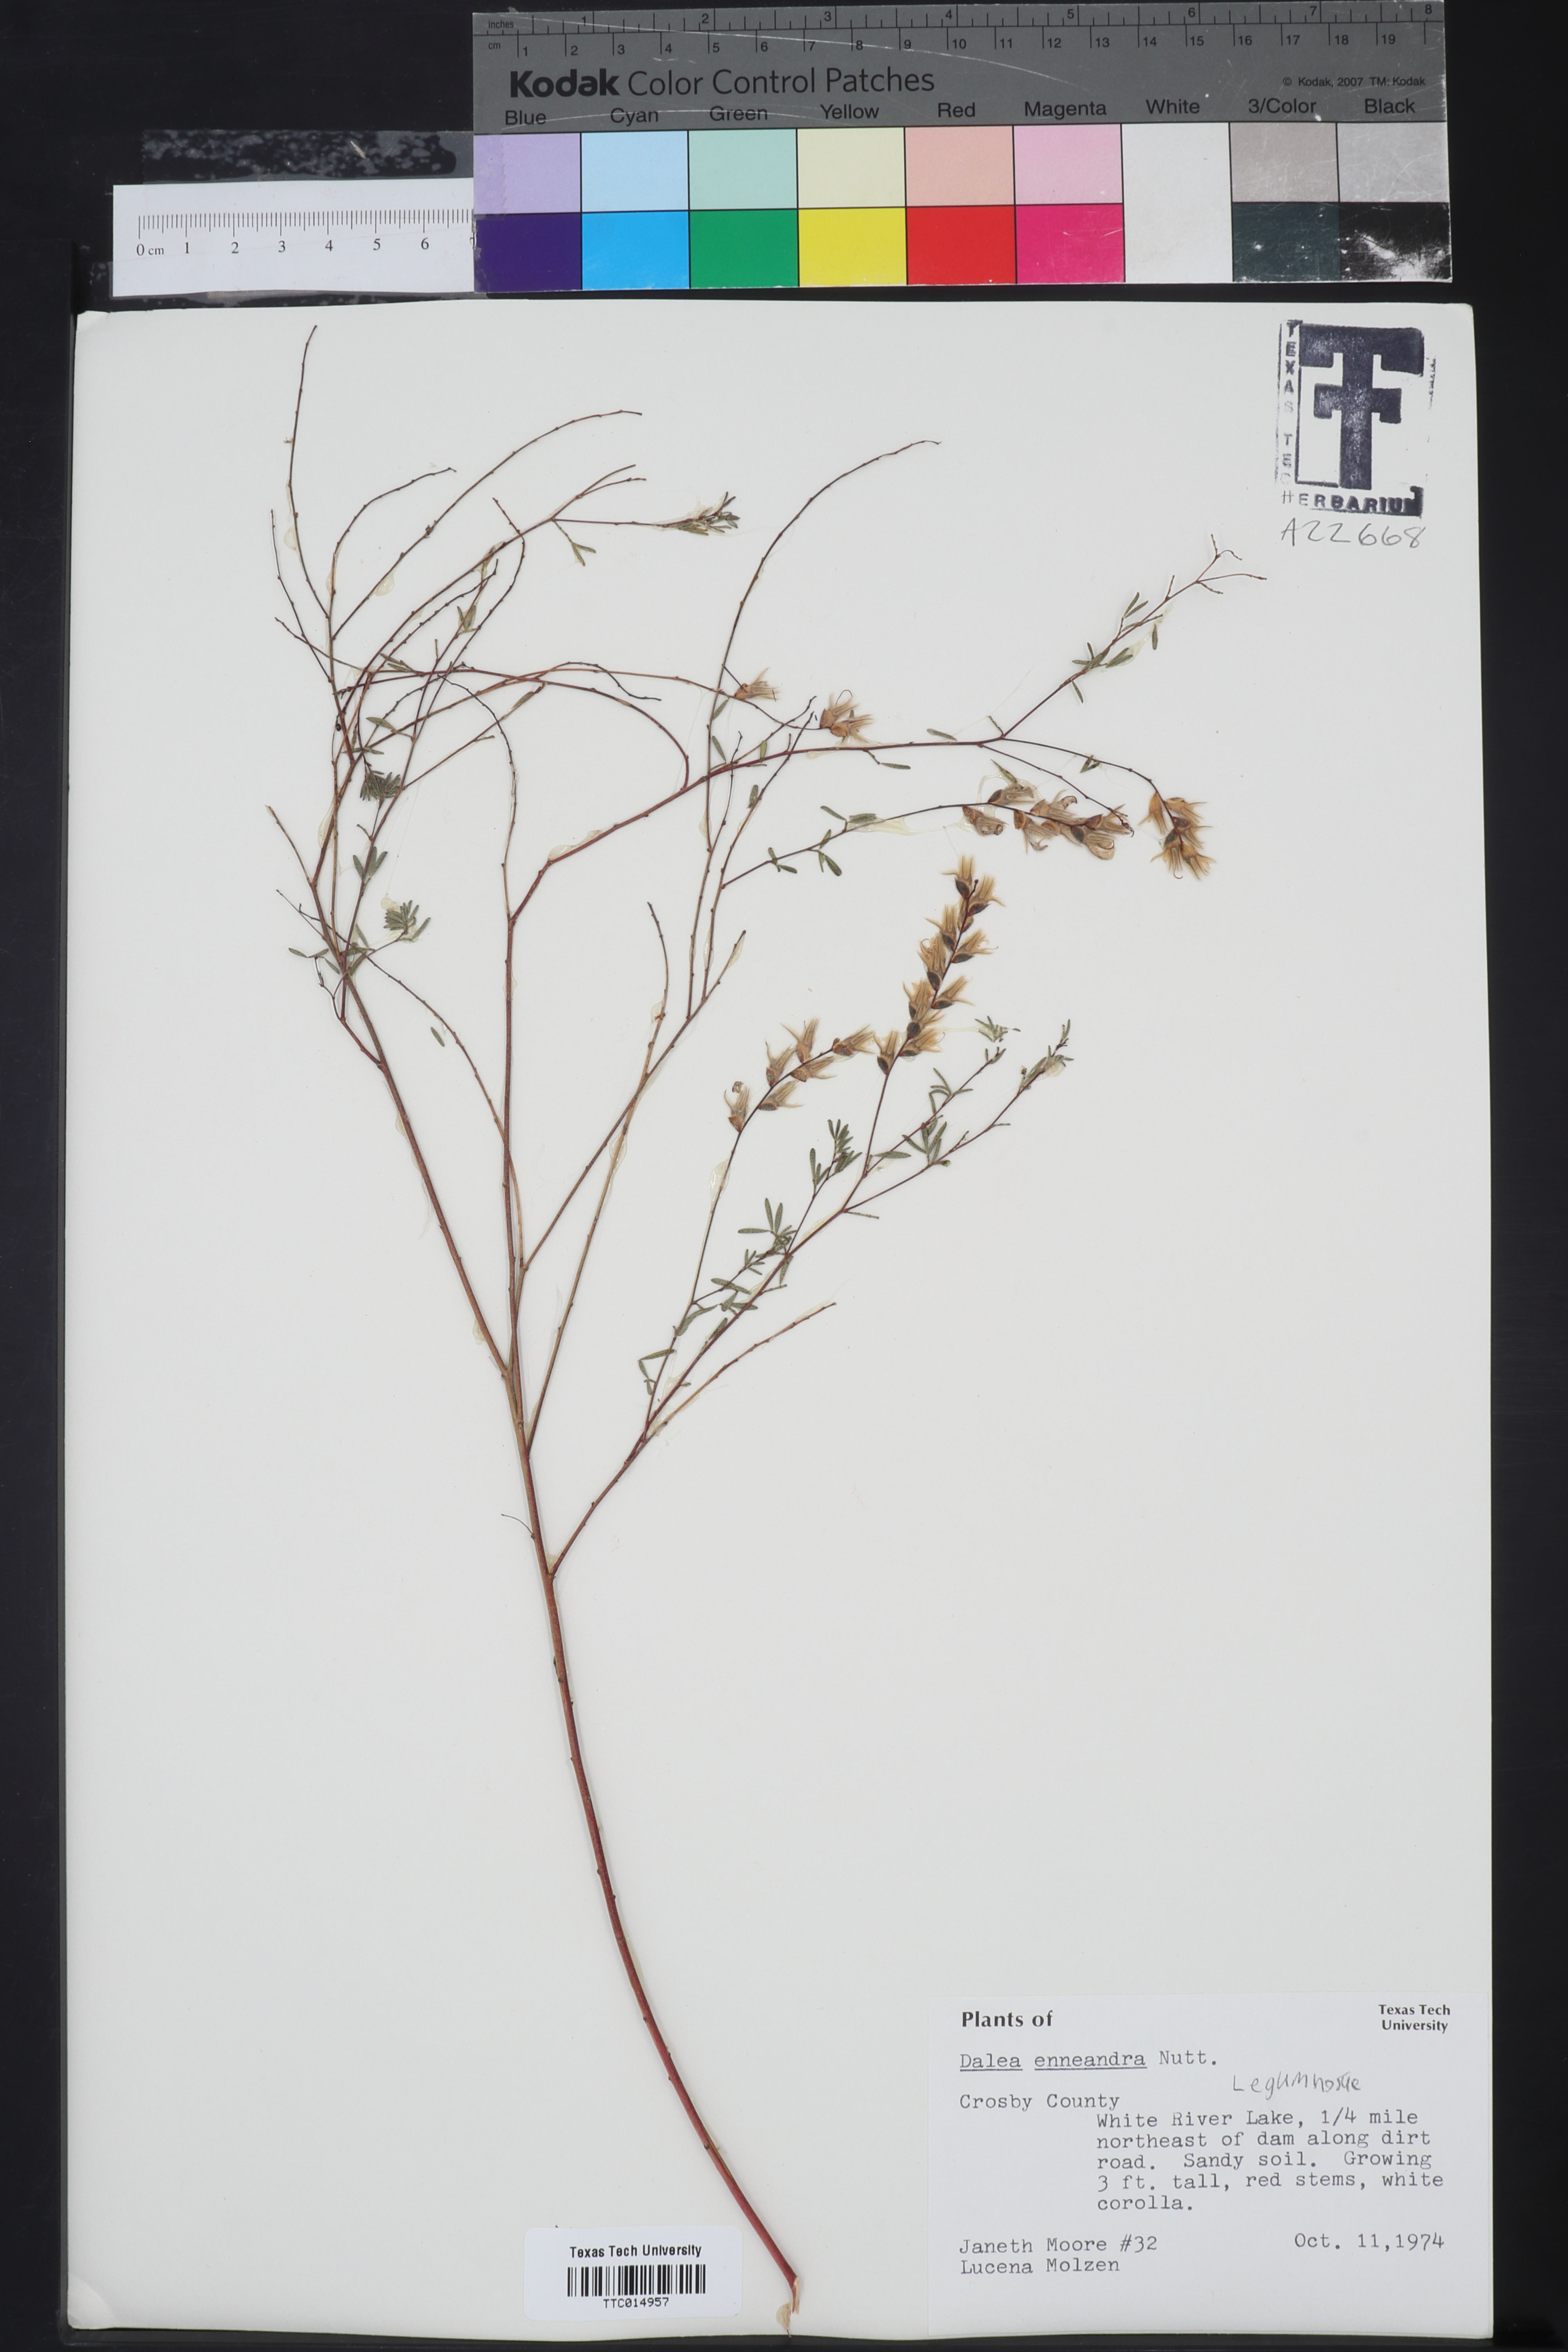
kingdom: Plantae
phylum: Tracheophyta
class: Magnoliopsida
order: Fabales
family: Fabaceae
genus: Dalea
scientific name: Dalea enneandra
